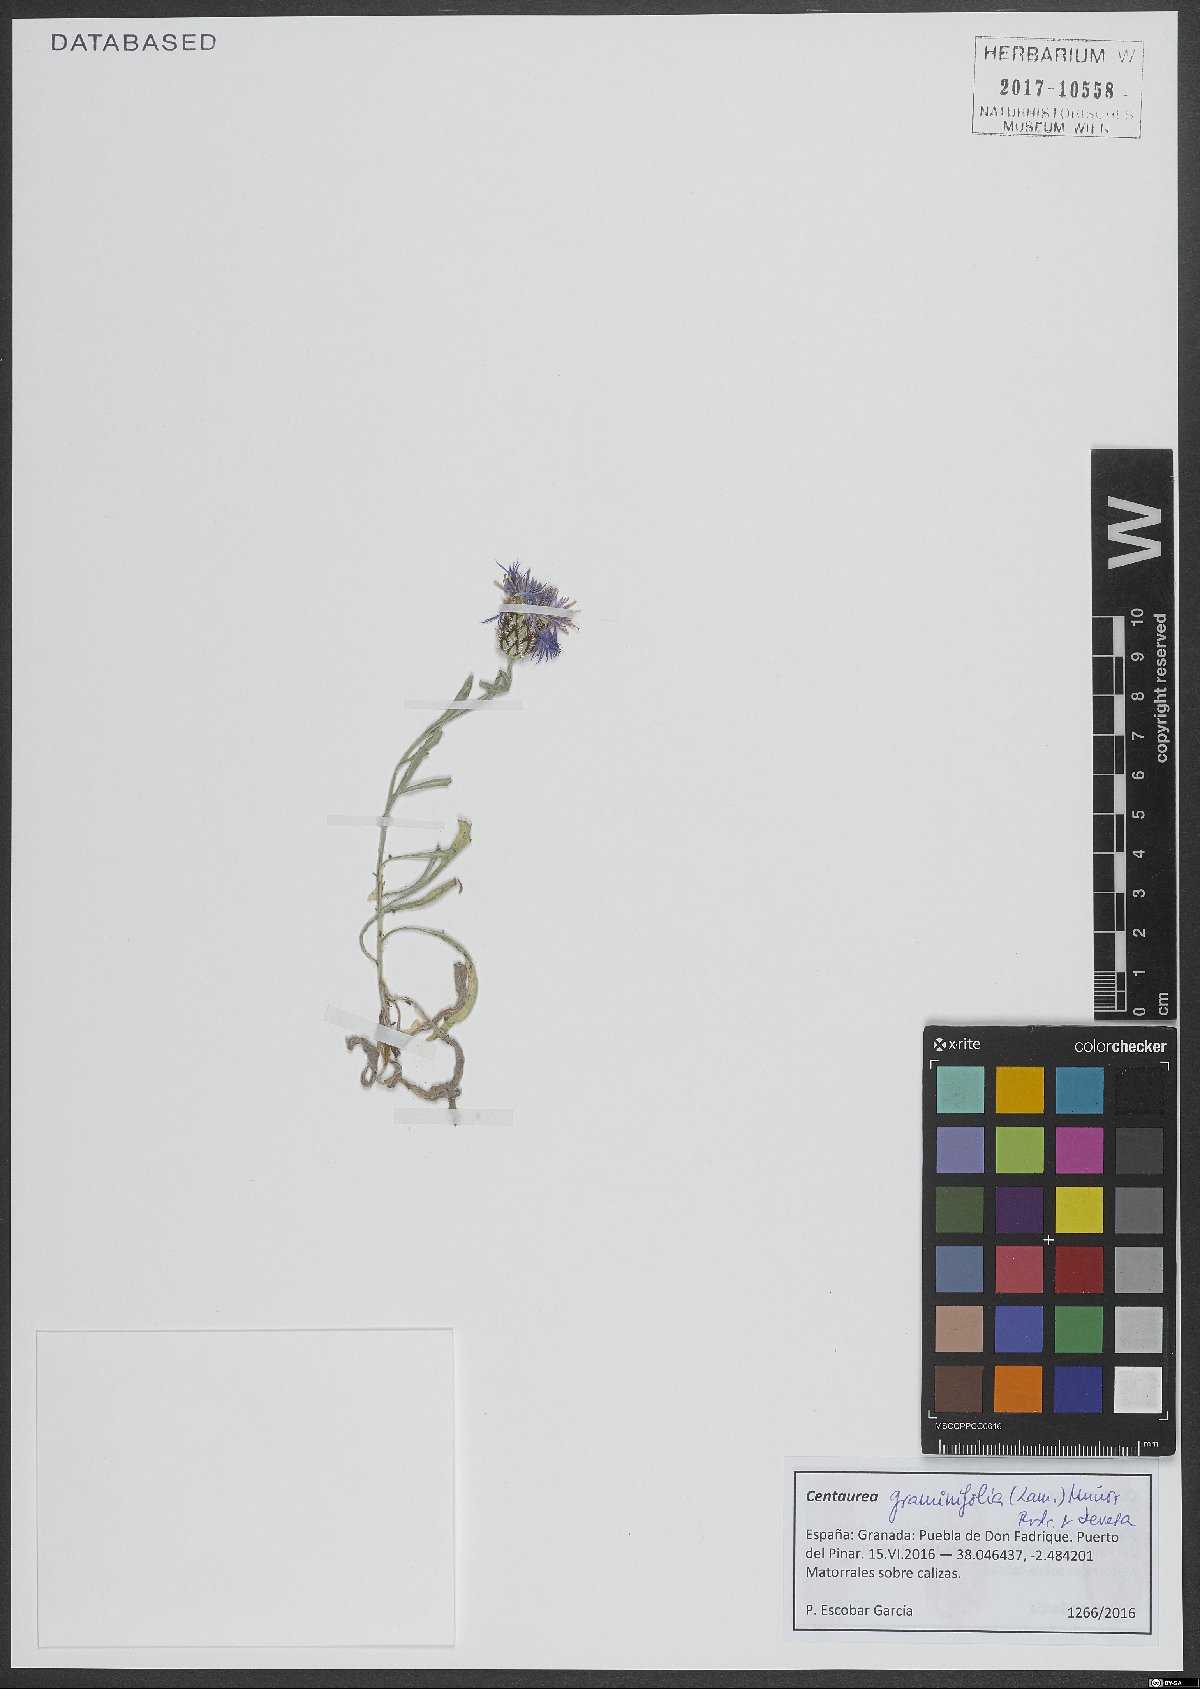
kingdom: Plantae
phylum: Tracheophyta
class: Magnoliopsida
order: Asterales
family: Asteraceae
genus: Centaurea
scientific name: Centaurea graminifolia
